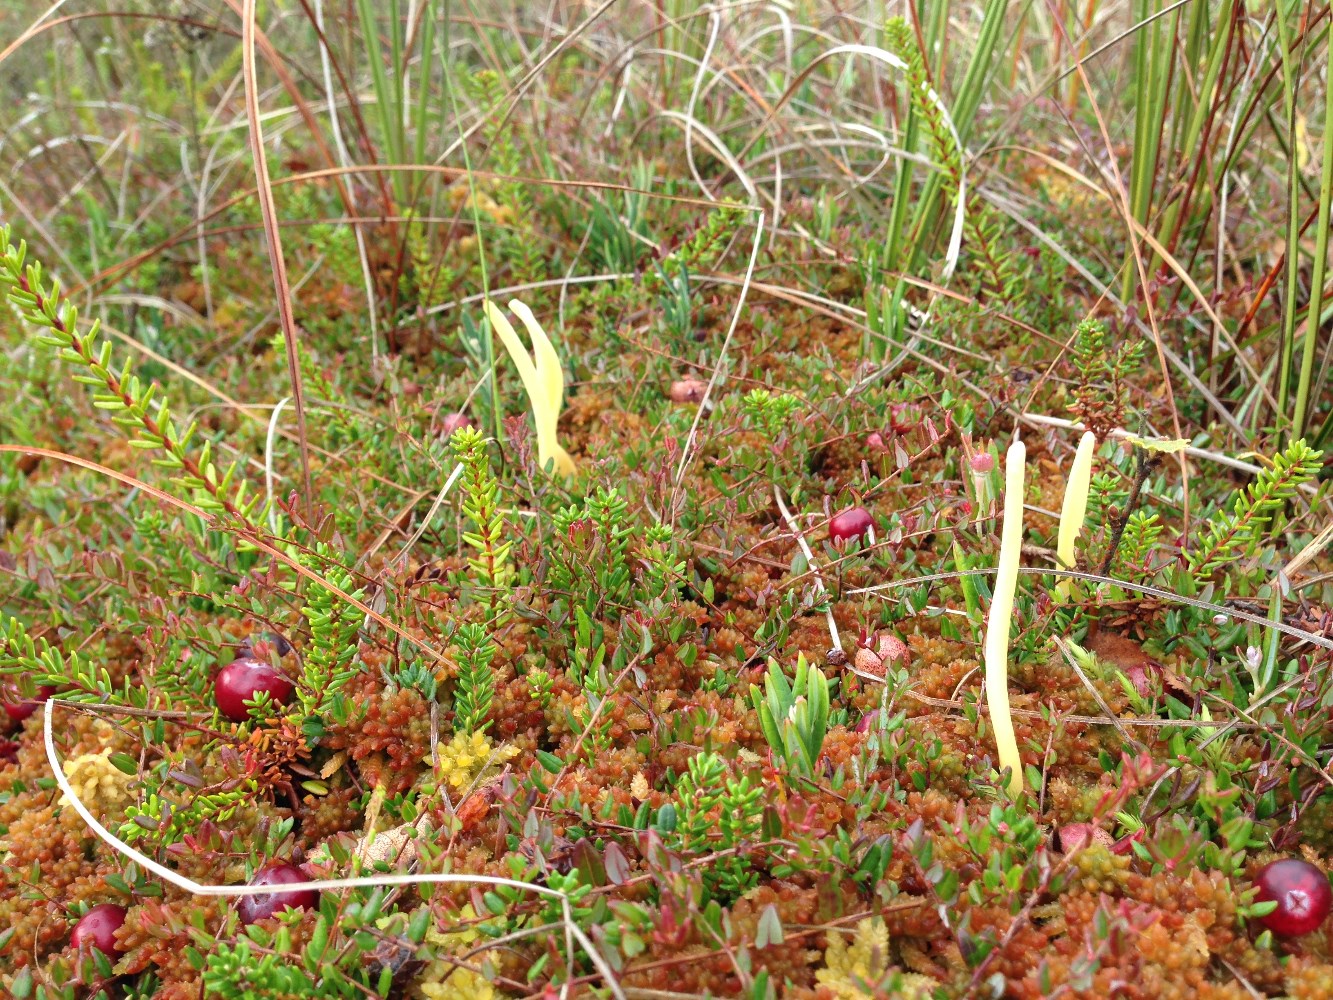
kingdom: Fungi
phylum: Basidiomycota
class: Agaricomycetes
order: Agaricales
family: Clavariaceae
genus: Clavaria
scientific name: Clavaria sphagnicola
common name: tørvemos-køllesvamp
